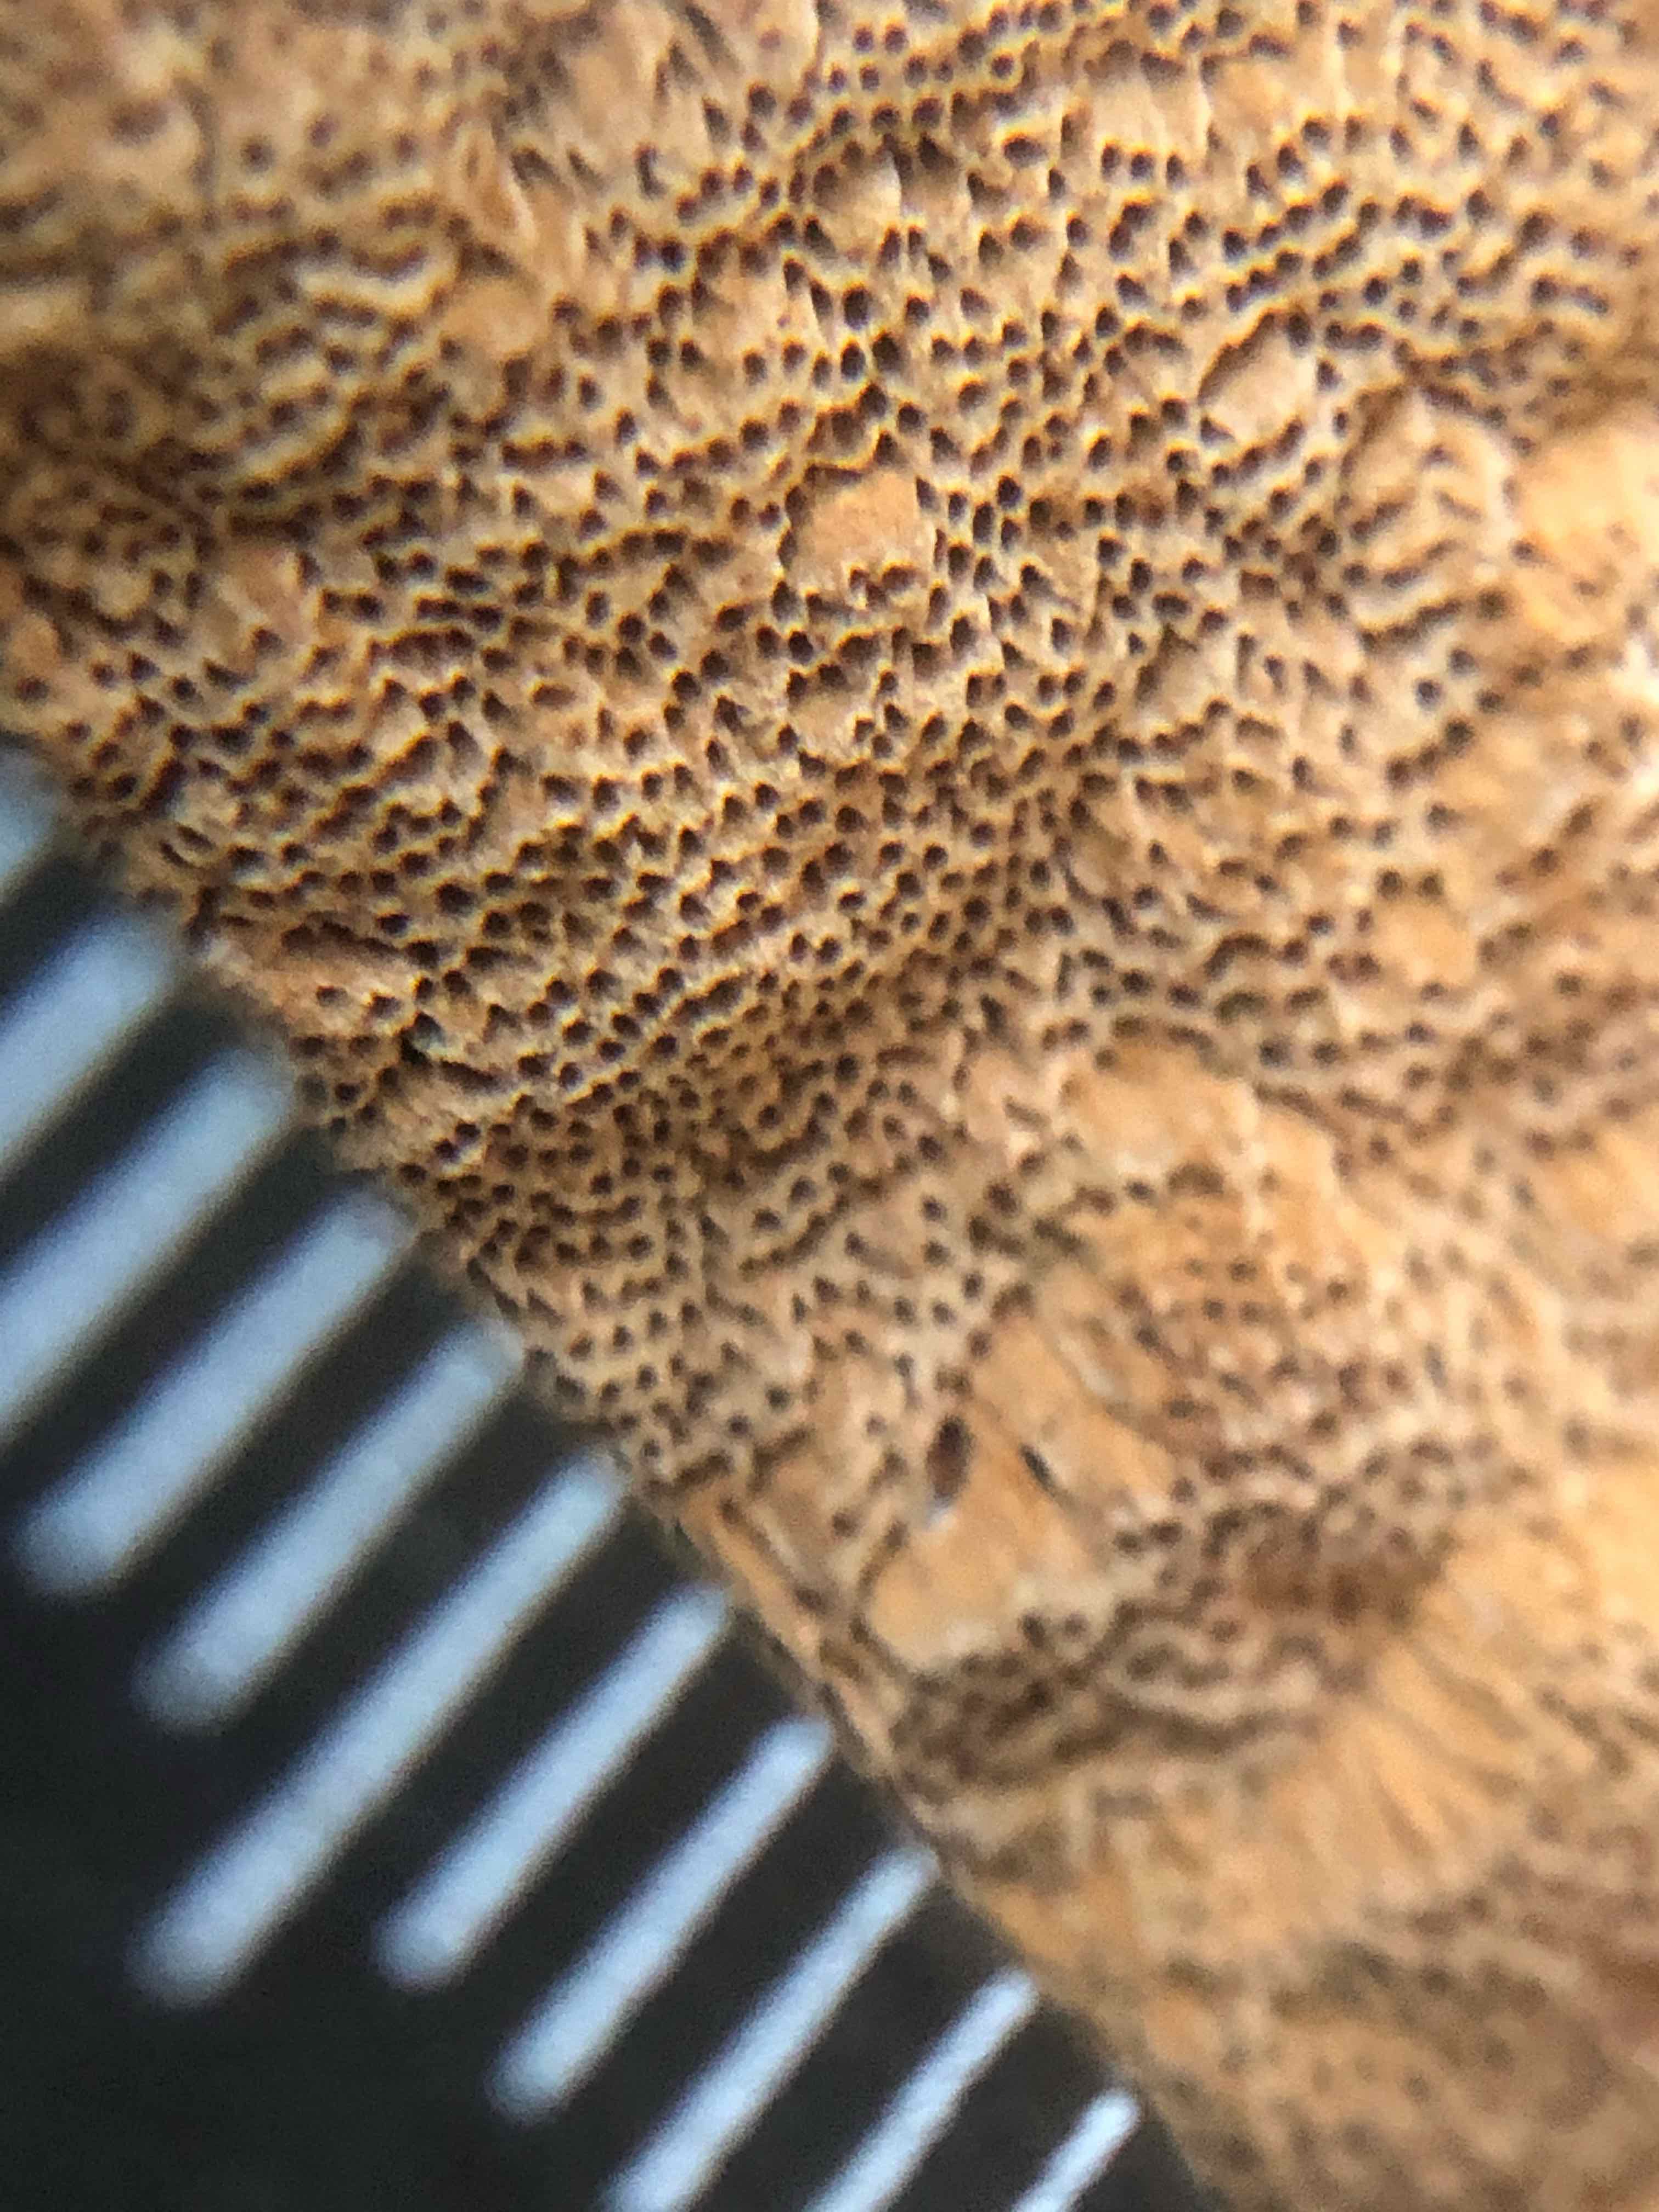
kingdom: Fungi
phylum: Basidiomycota
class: Agaricomycetes
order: Hymenochaetales
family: Hymenochaetaceae
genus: Fuscoporia
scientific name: Fuscoporia ferrea
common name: skorpe-ildporesvamp
